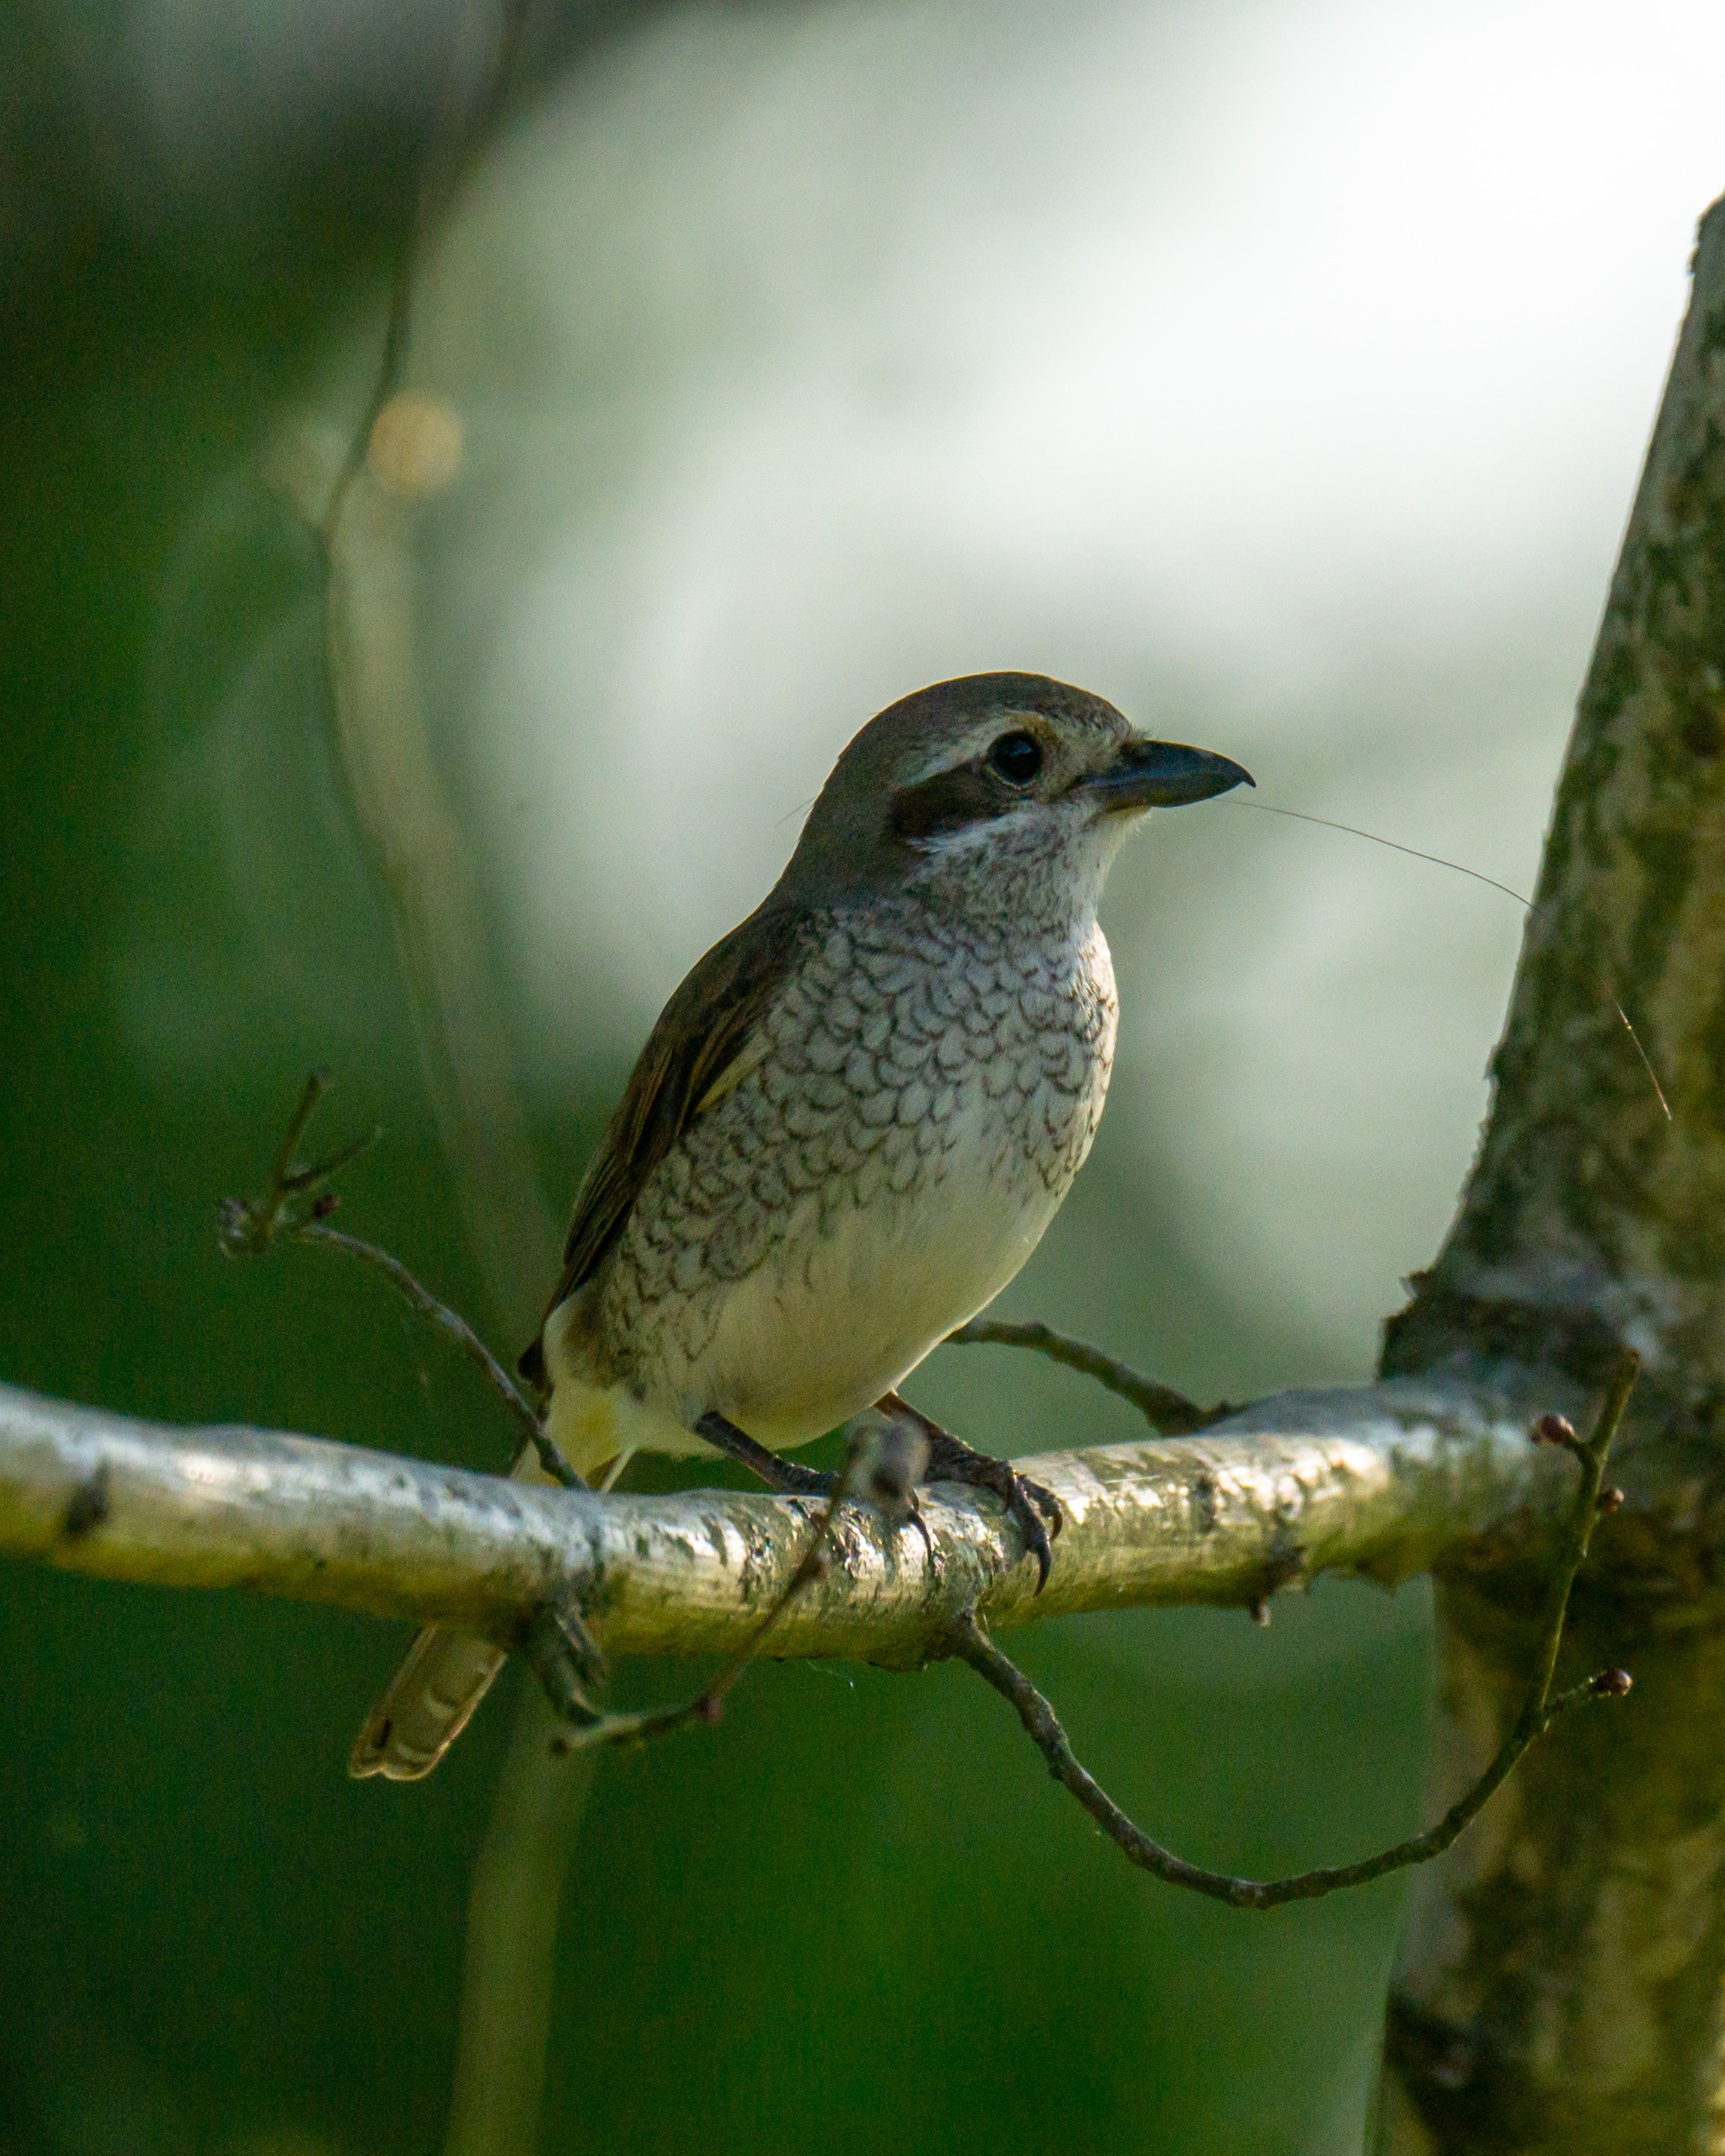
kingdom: Animalia
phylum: Chordata
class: Aves
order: Passeriformes
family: Laniidae
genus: Lanius
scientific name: Lanius collurio
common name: Rødrygget tornskade
